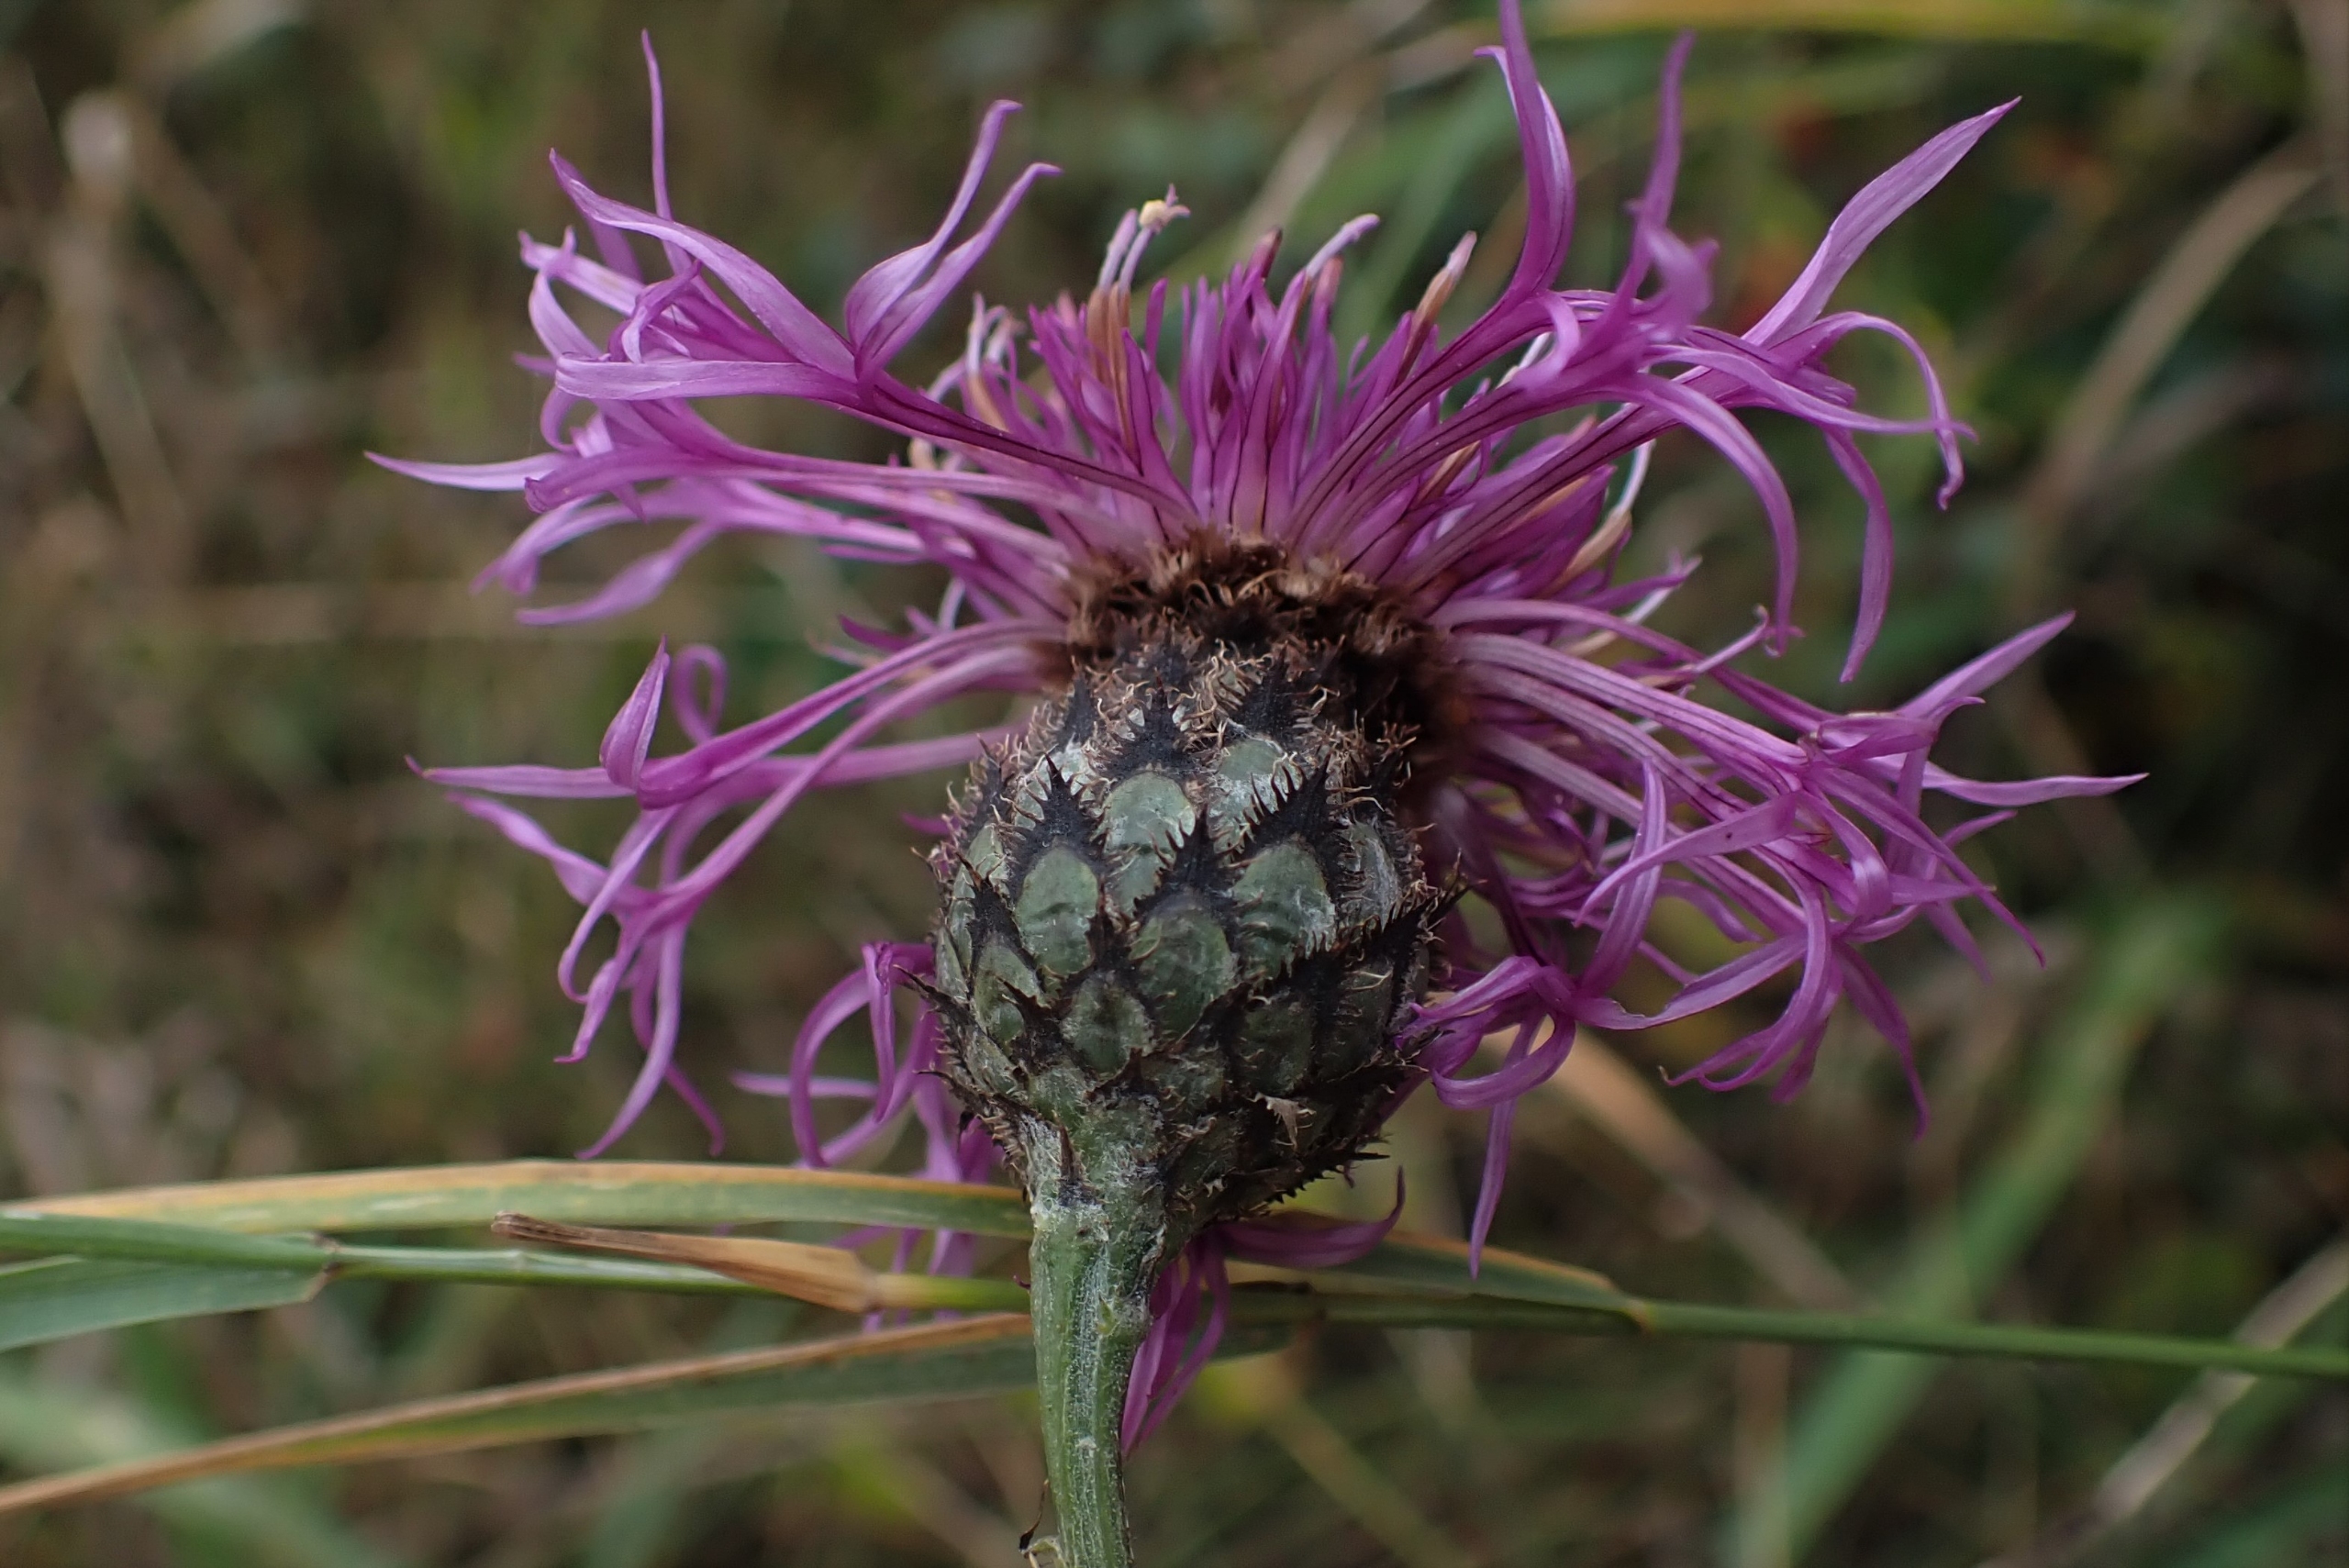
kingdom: Plantae
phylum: Tracheophyta
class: Magnoliopsida
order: Asterales
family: Asteraceae
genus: Centaurea
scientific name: Centaurea scabiosa
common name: Stor knopurt
